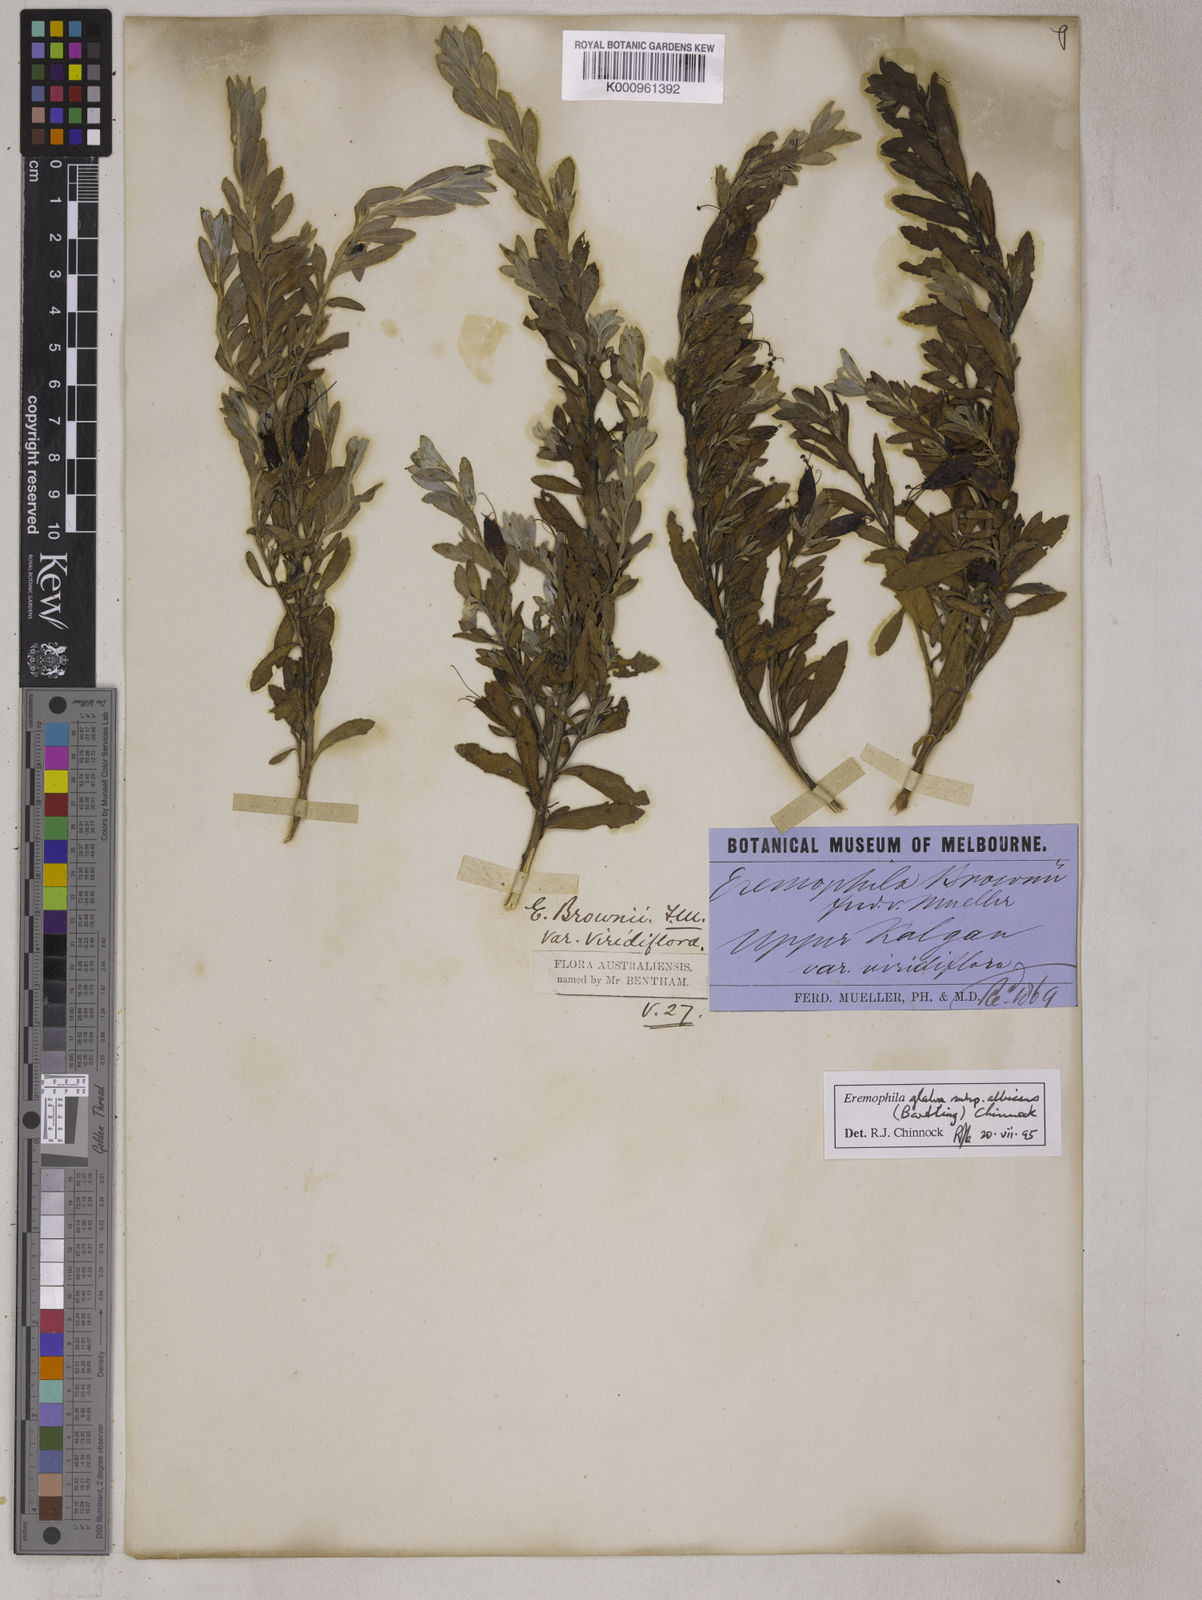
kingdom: Plantae
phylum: Tracheophyta
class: Magnoliopsida
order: Lamiales
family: Scrophulariaceae
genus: Eremophila
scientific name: Eremophila glabra
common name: Black-fuchsia
